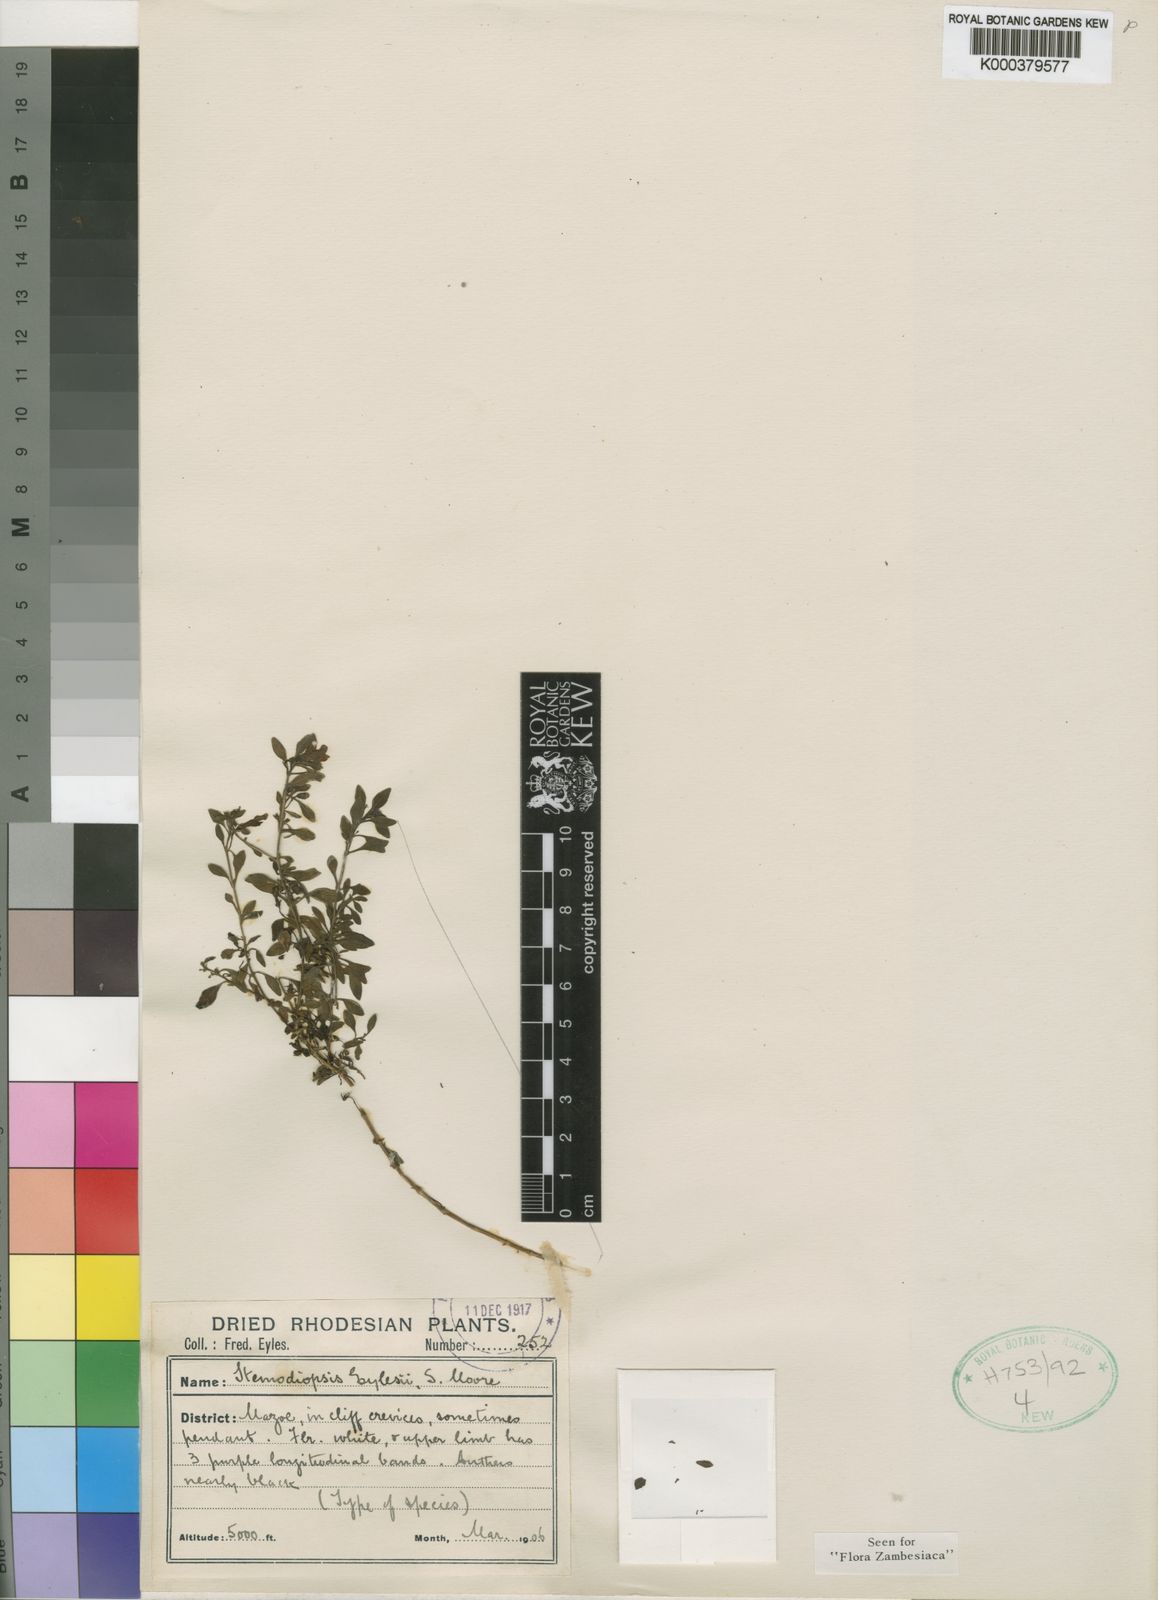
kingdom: Plantae
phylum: Tracheophyta
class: Magnoliopsida
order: Lamiales
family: Linderniaceae
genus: Stemodiopsis
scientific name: Stemodiopsis eylesii
